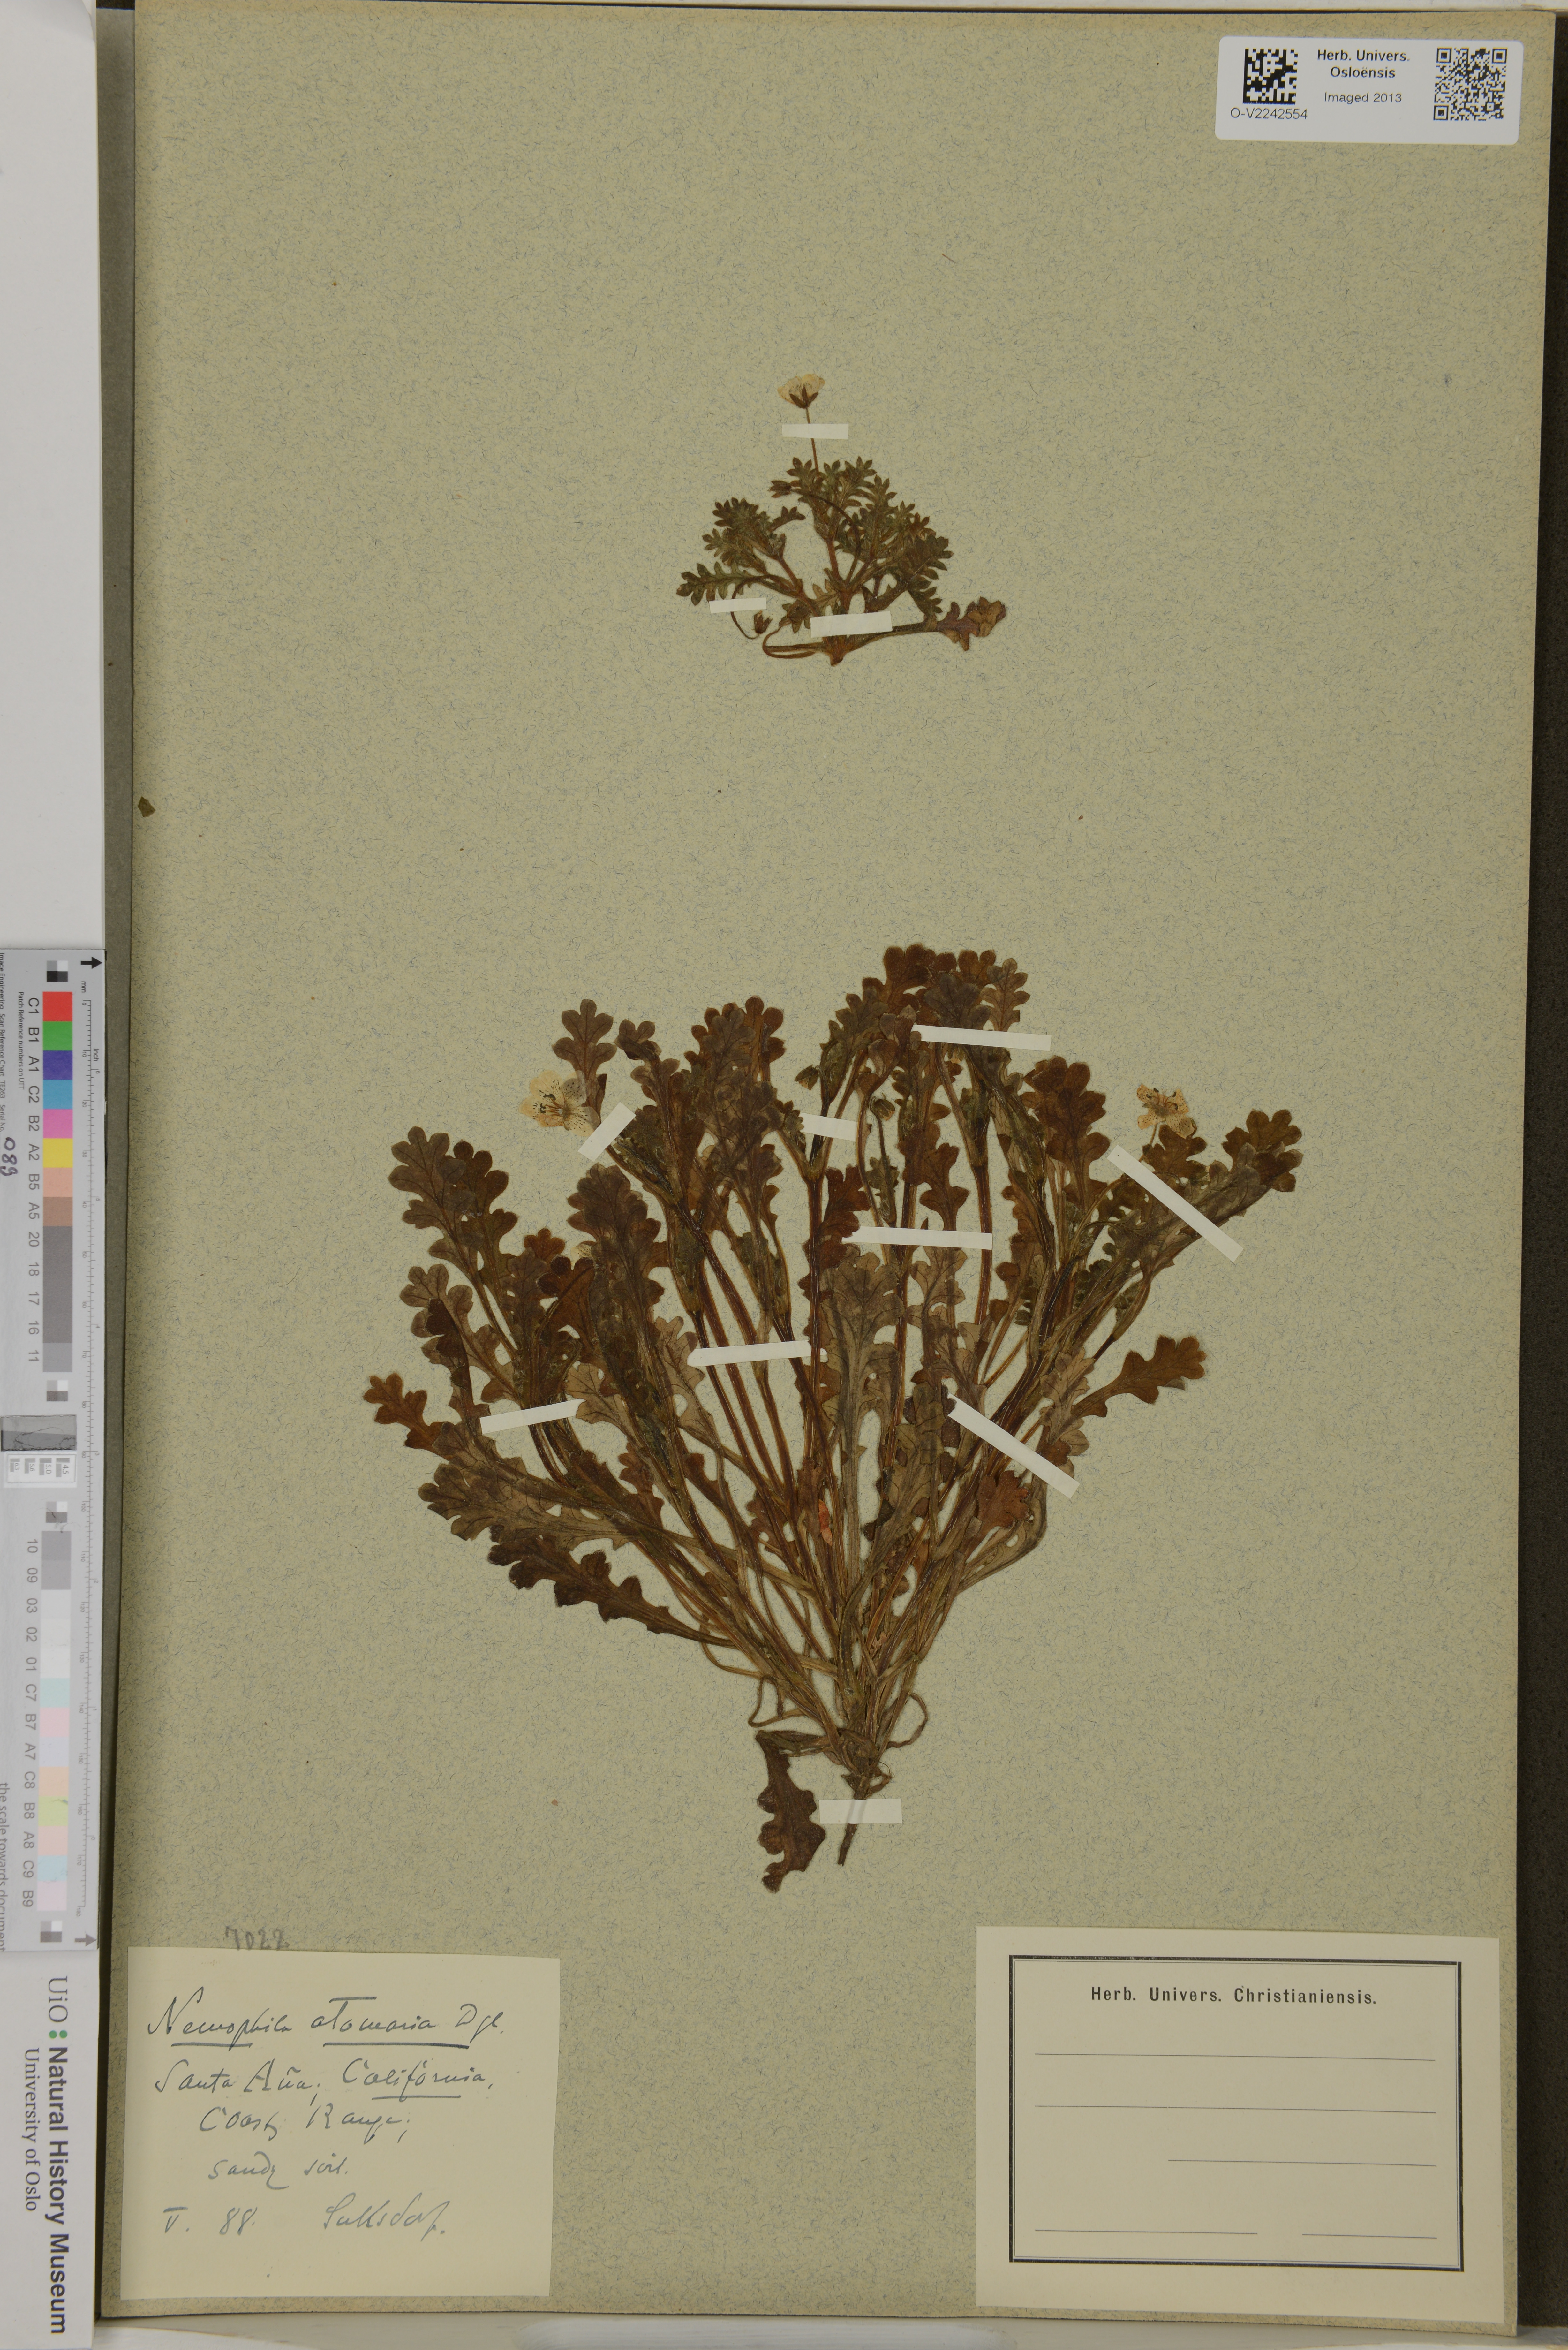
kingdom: Plantae
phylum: Tracheophyta
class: Magnoliopsida
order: Boraginales
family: Hydrophyllaceae
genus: Nemophila
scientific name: Nemophila menziesii
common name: Baby's-blue-eyes
